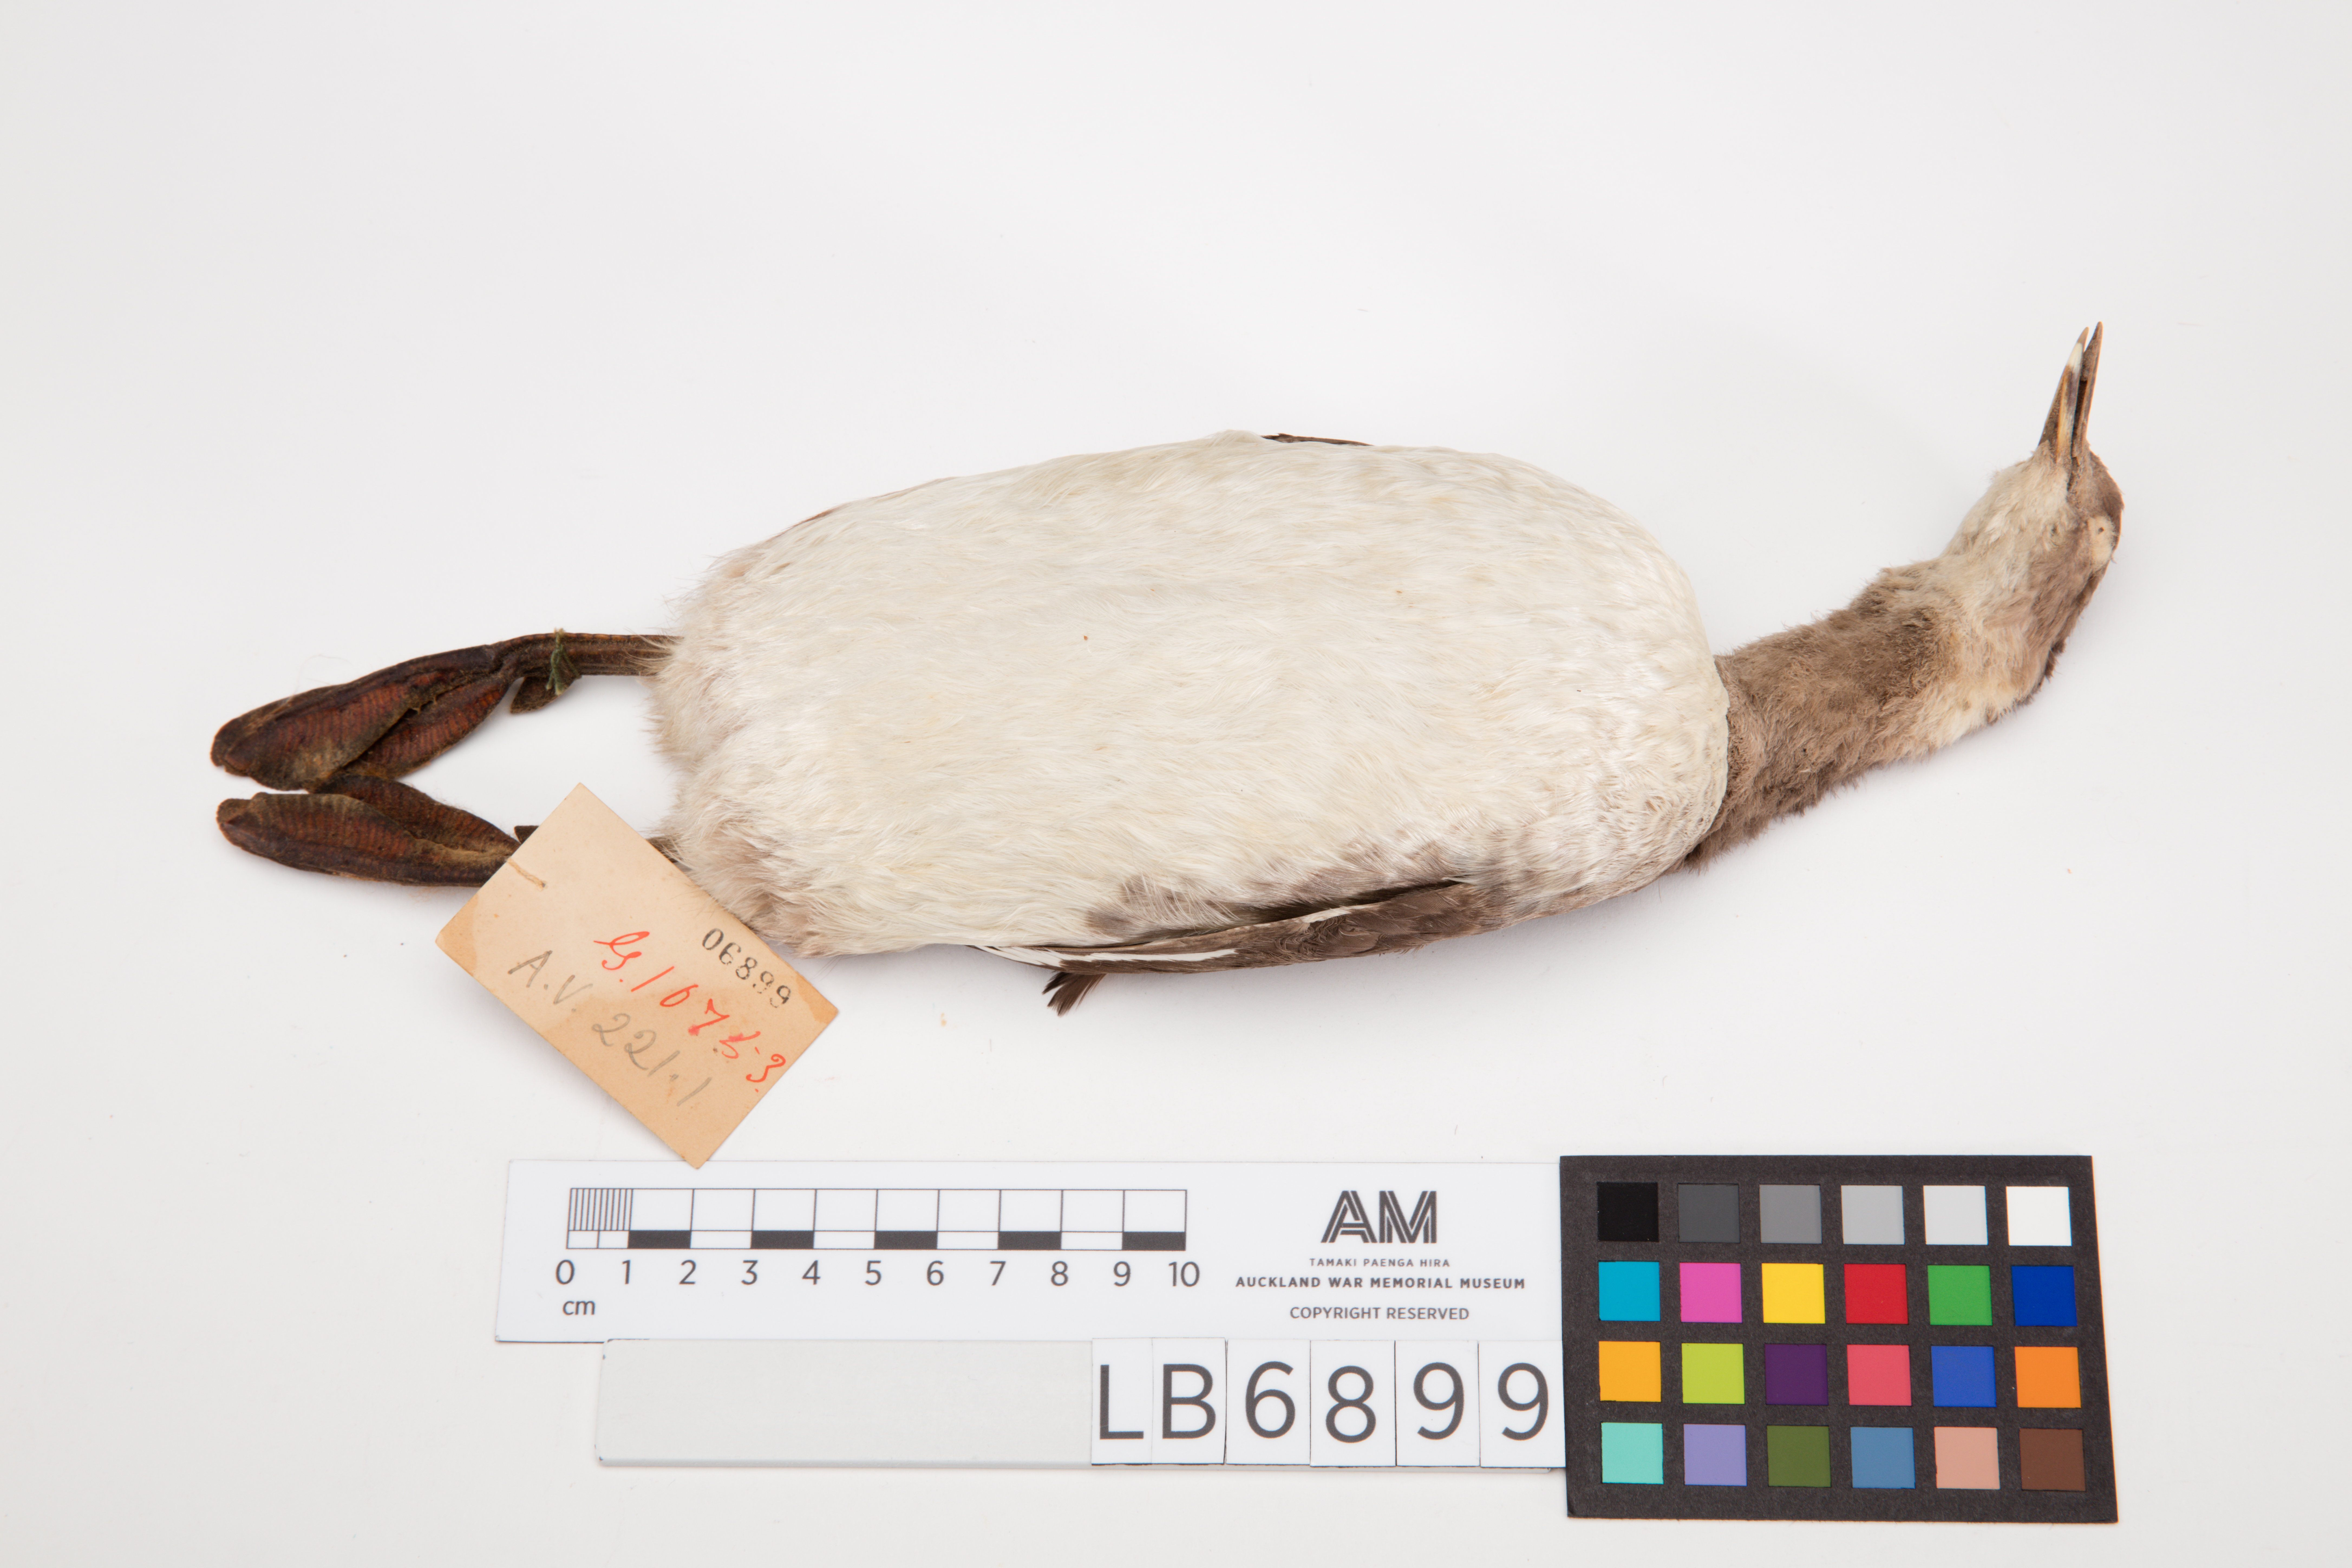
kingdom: Animalia
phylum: Chordata
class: Aves
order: Podicipediformes
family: Podicipedidae
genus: Podiceps
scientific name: Podiceps nigricollis
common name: Black-necked grebe
